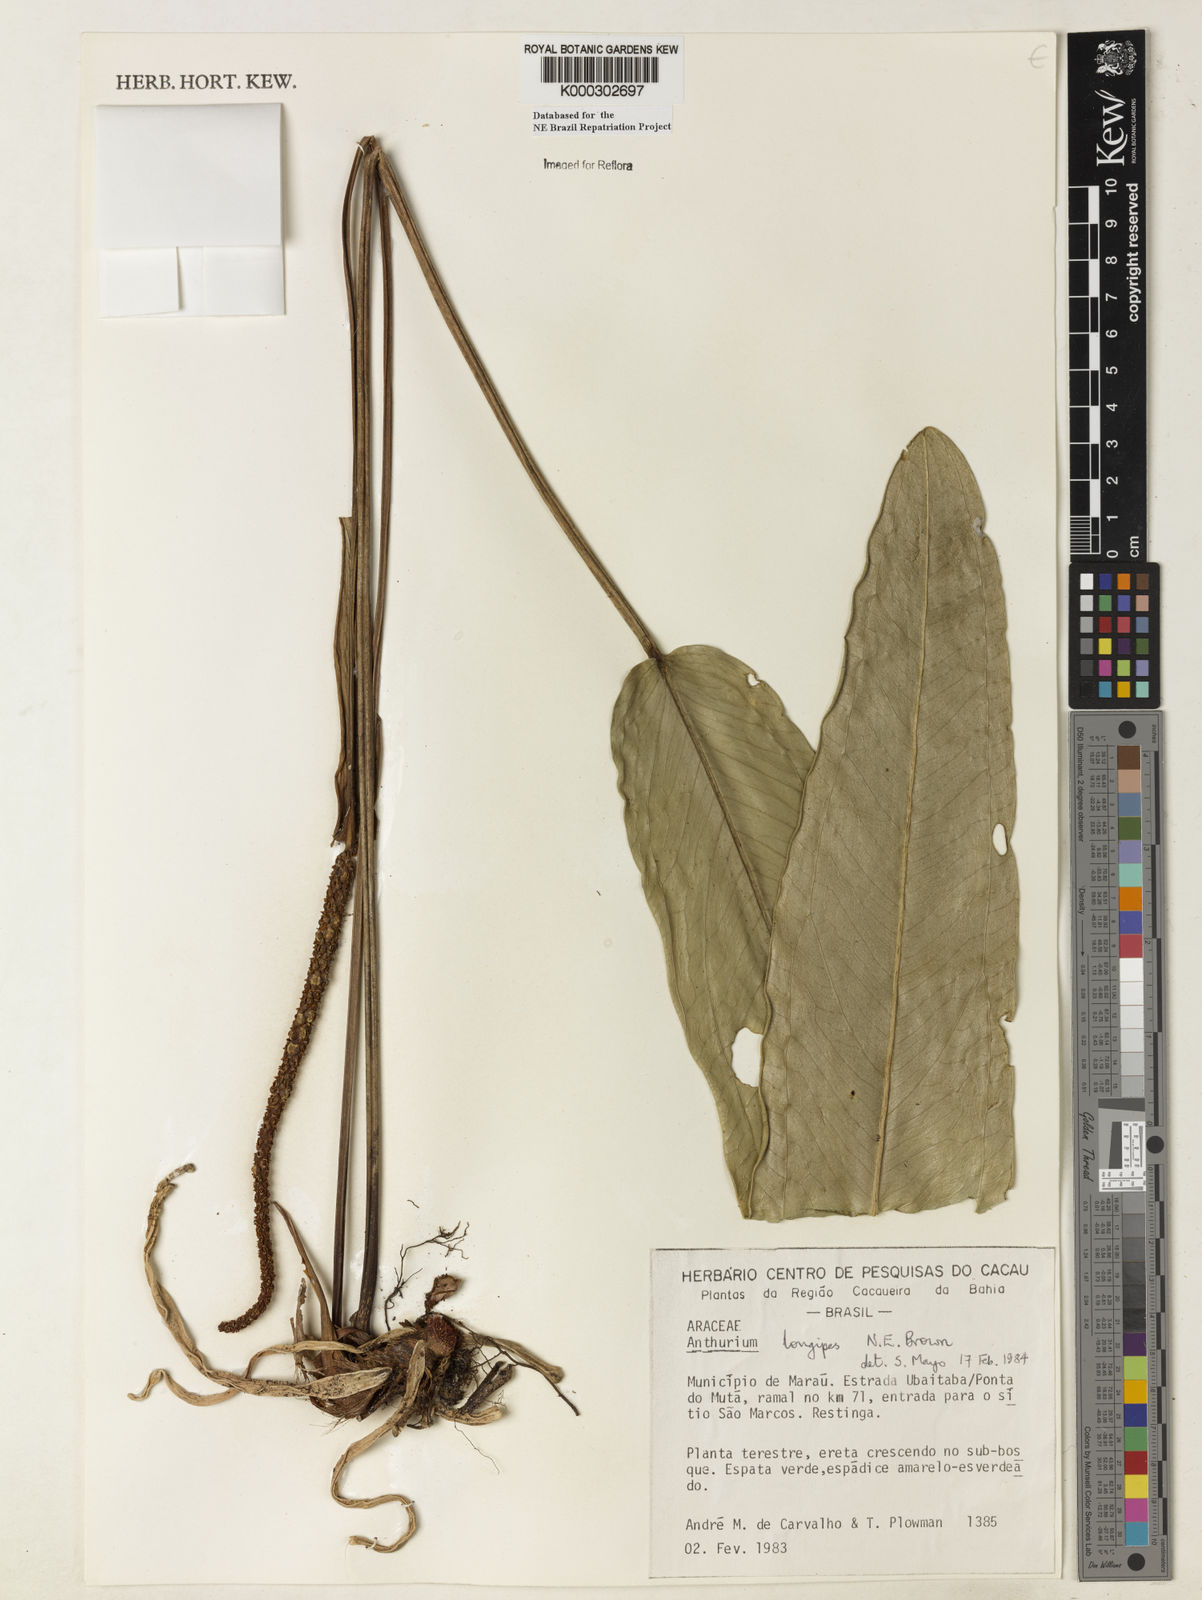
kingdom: Plantae
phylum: Tracheophyta
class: Liliopsida
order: Alismatales
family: Araceae
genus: Anthurium
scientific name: Anthurium longipes
